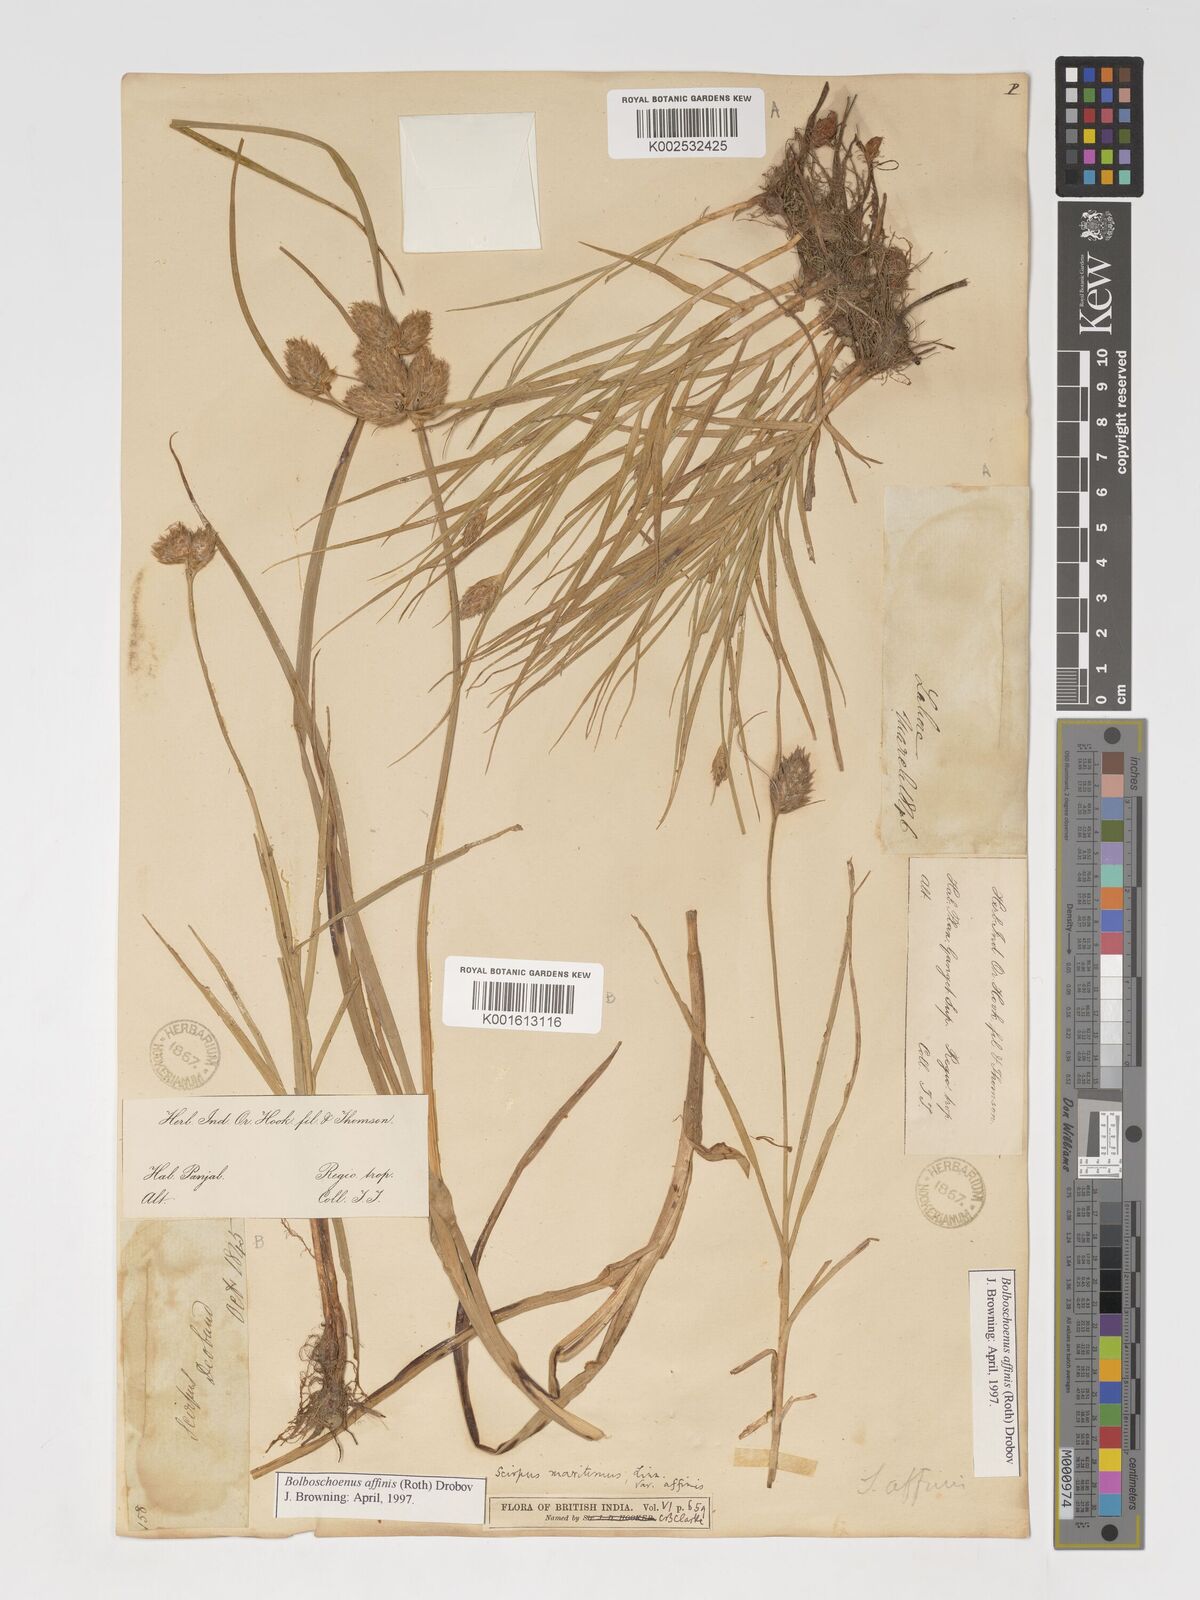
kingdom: Plantae
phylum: Tracheophyta
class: Liliopsida
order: Poales
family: Cyperaceae
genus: Bolboschoenus
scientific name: Bolboschoenus maritimus
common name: Sea club-rush
